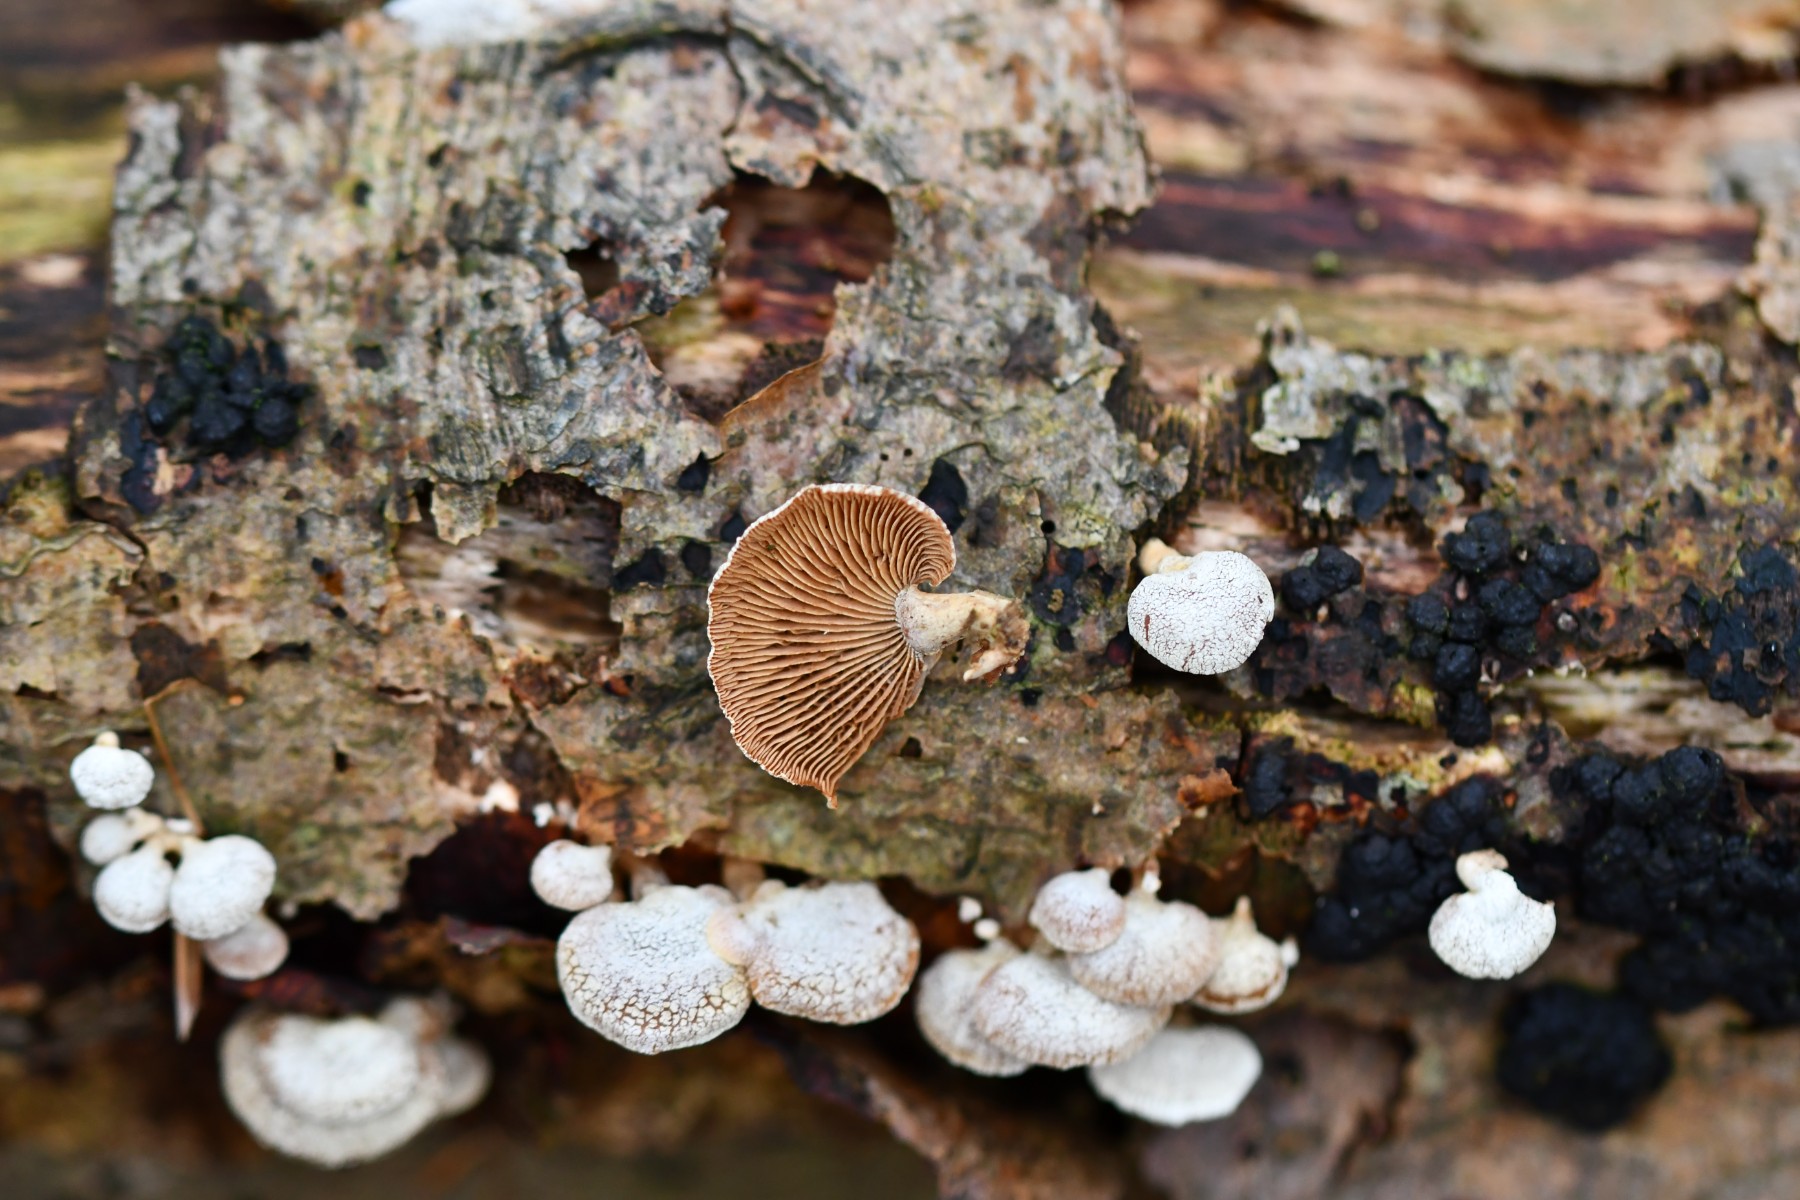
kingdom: Fungi
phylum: Basidiomycota
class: Agaricomycetes
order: Agaricales
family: Mycenaceae
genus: Panellus
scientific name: Panellus stipticus
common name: kliddet epaulethat
